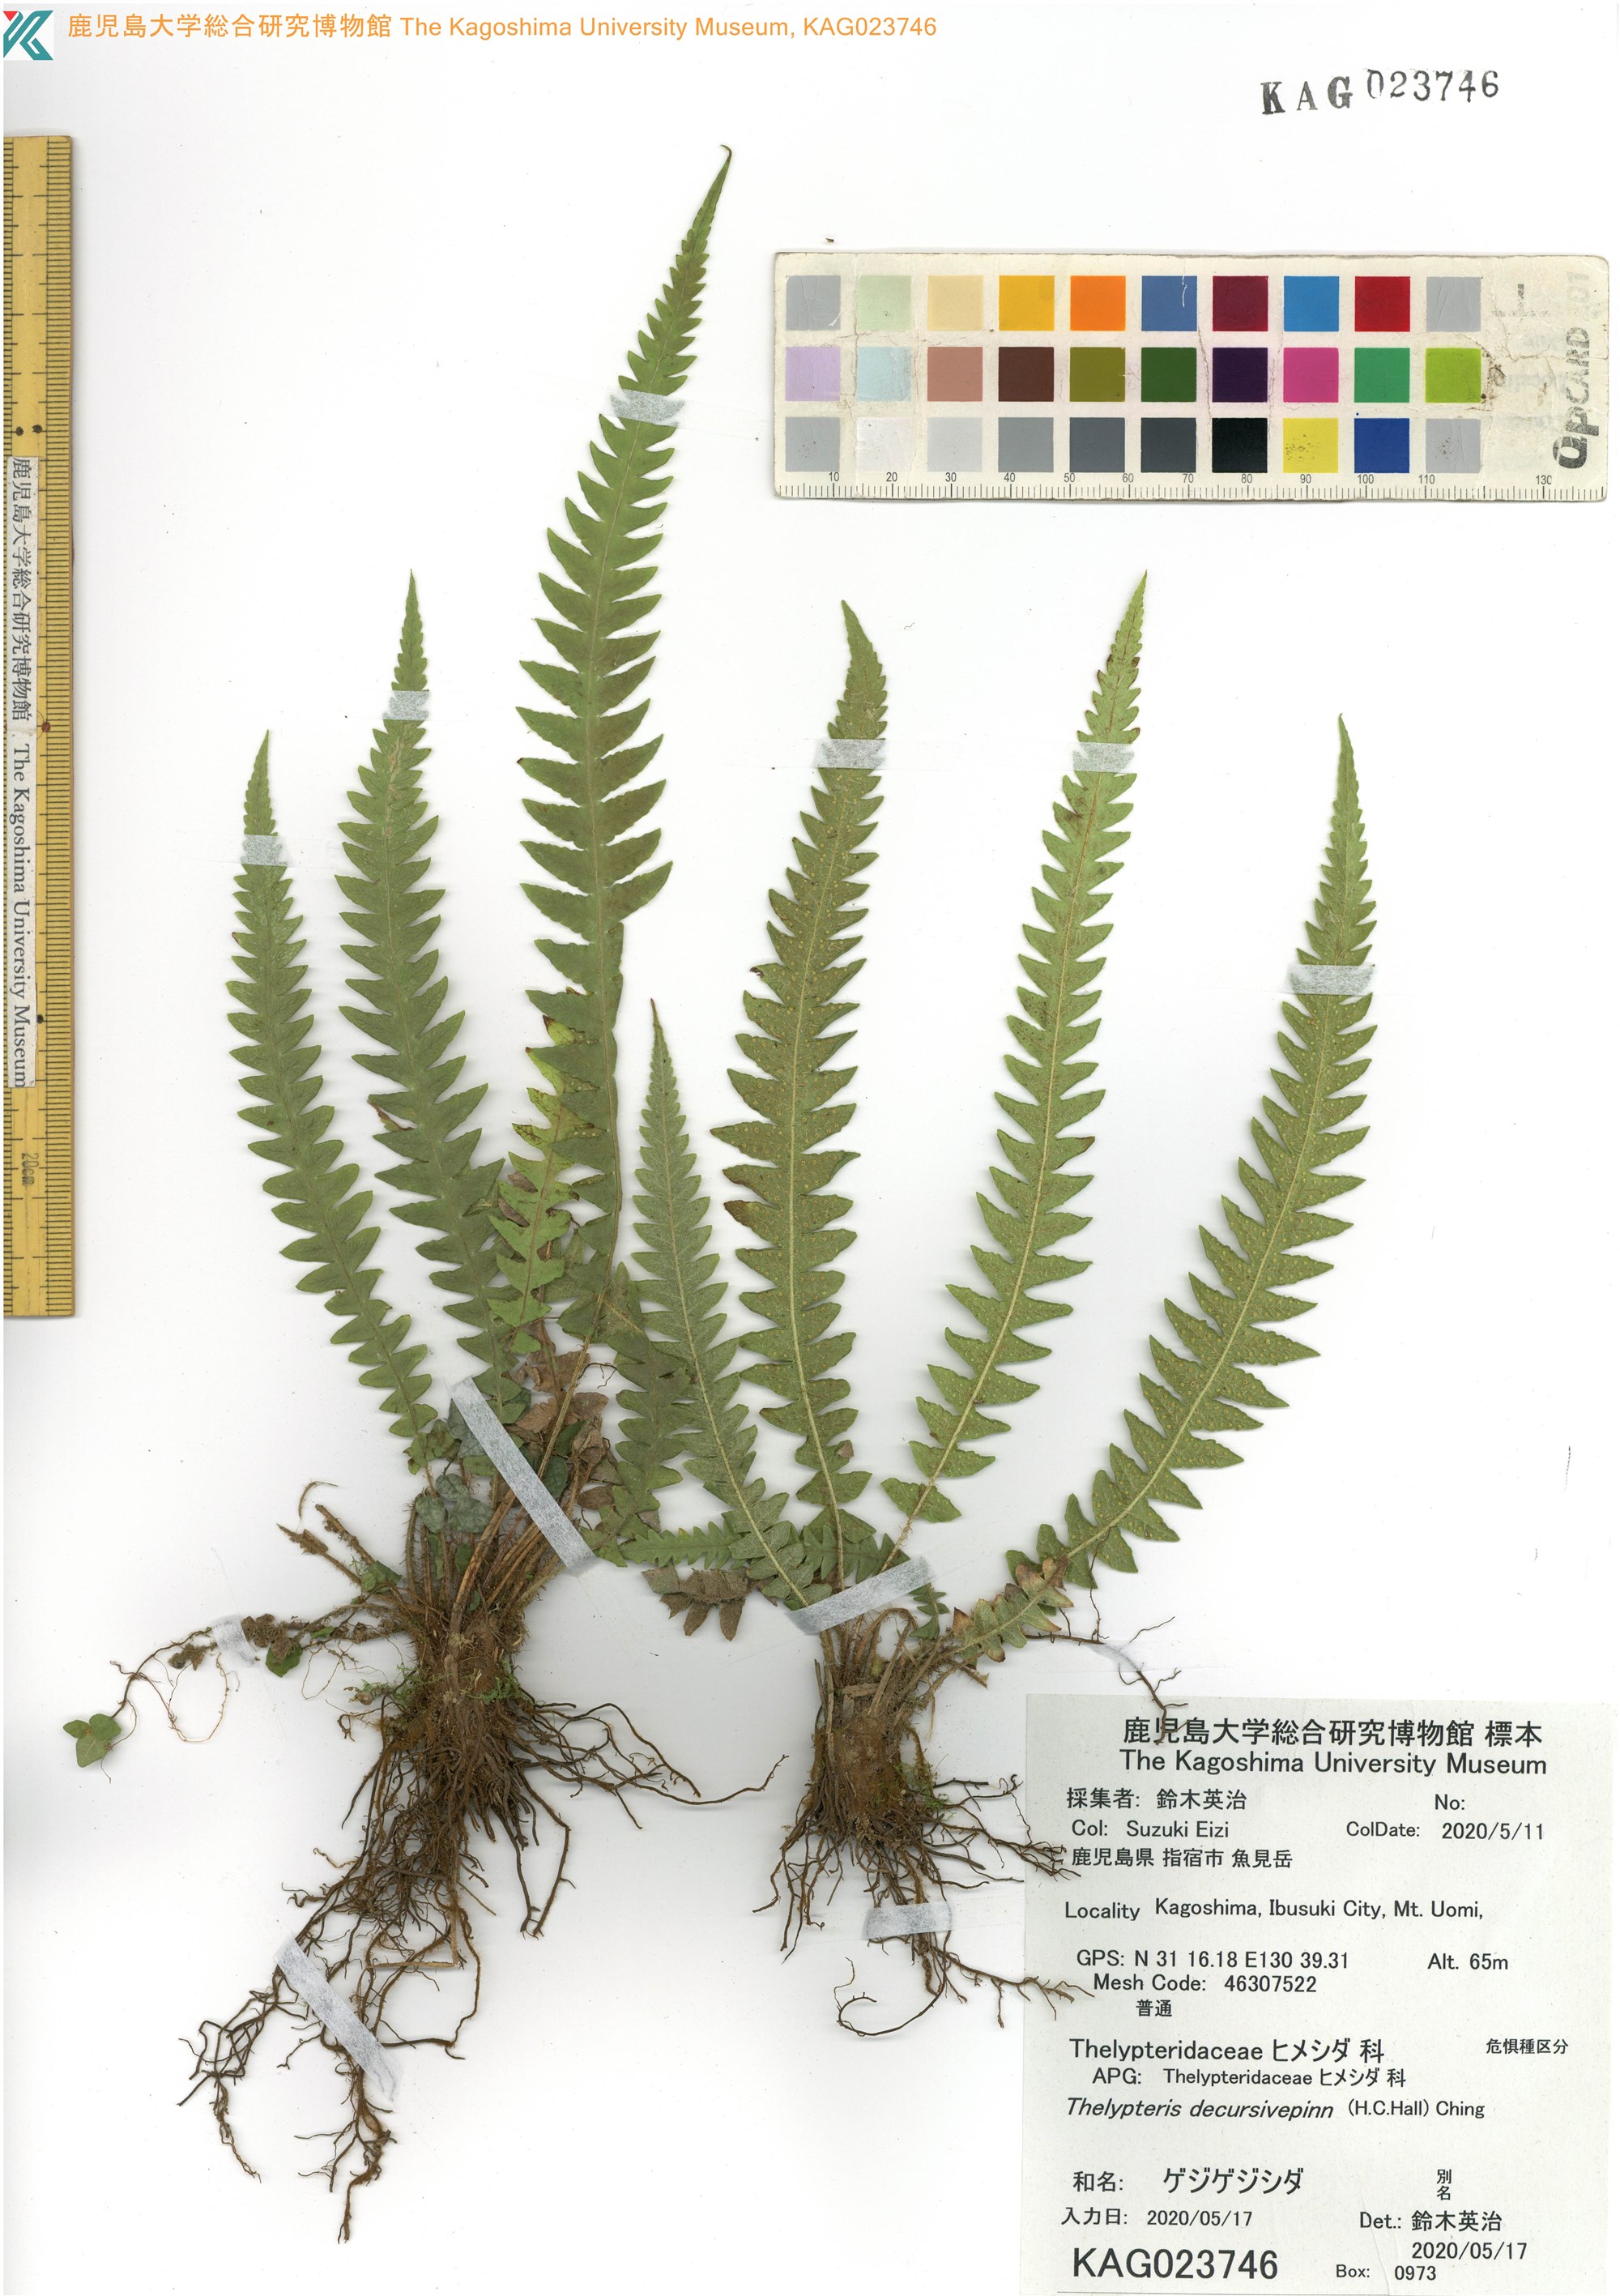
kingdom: Plantae
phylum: Tracheophyta
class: Polypodiopsida
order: Polypodiales
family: Thelypteridaceae
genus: Phegopteris
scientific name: Phegopteris decursive-pinnata
